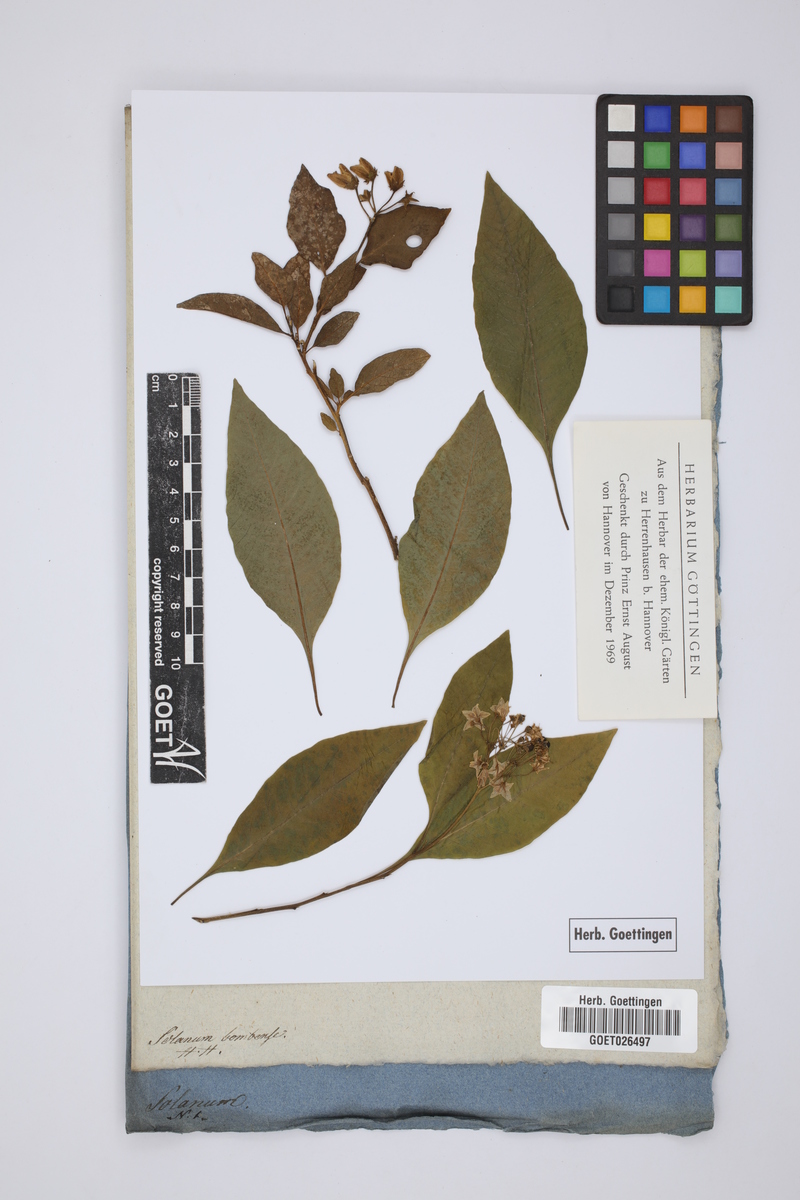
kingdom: Plantae
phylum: Tracheophyta
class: Magnoliopsida
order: Solanales
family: Solanaceae
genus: Solanum
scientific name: Solanum pubigerum
